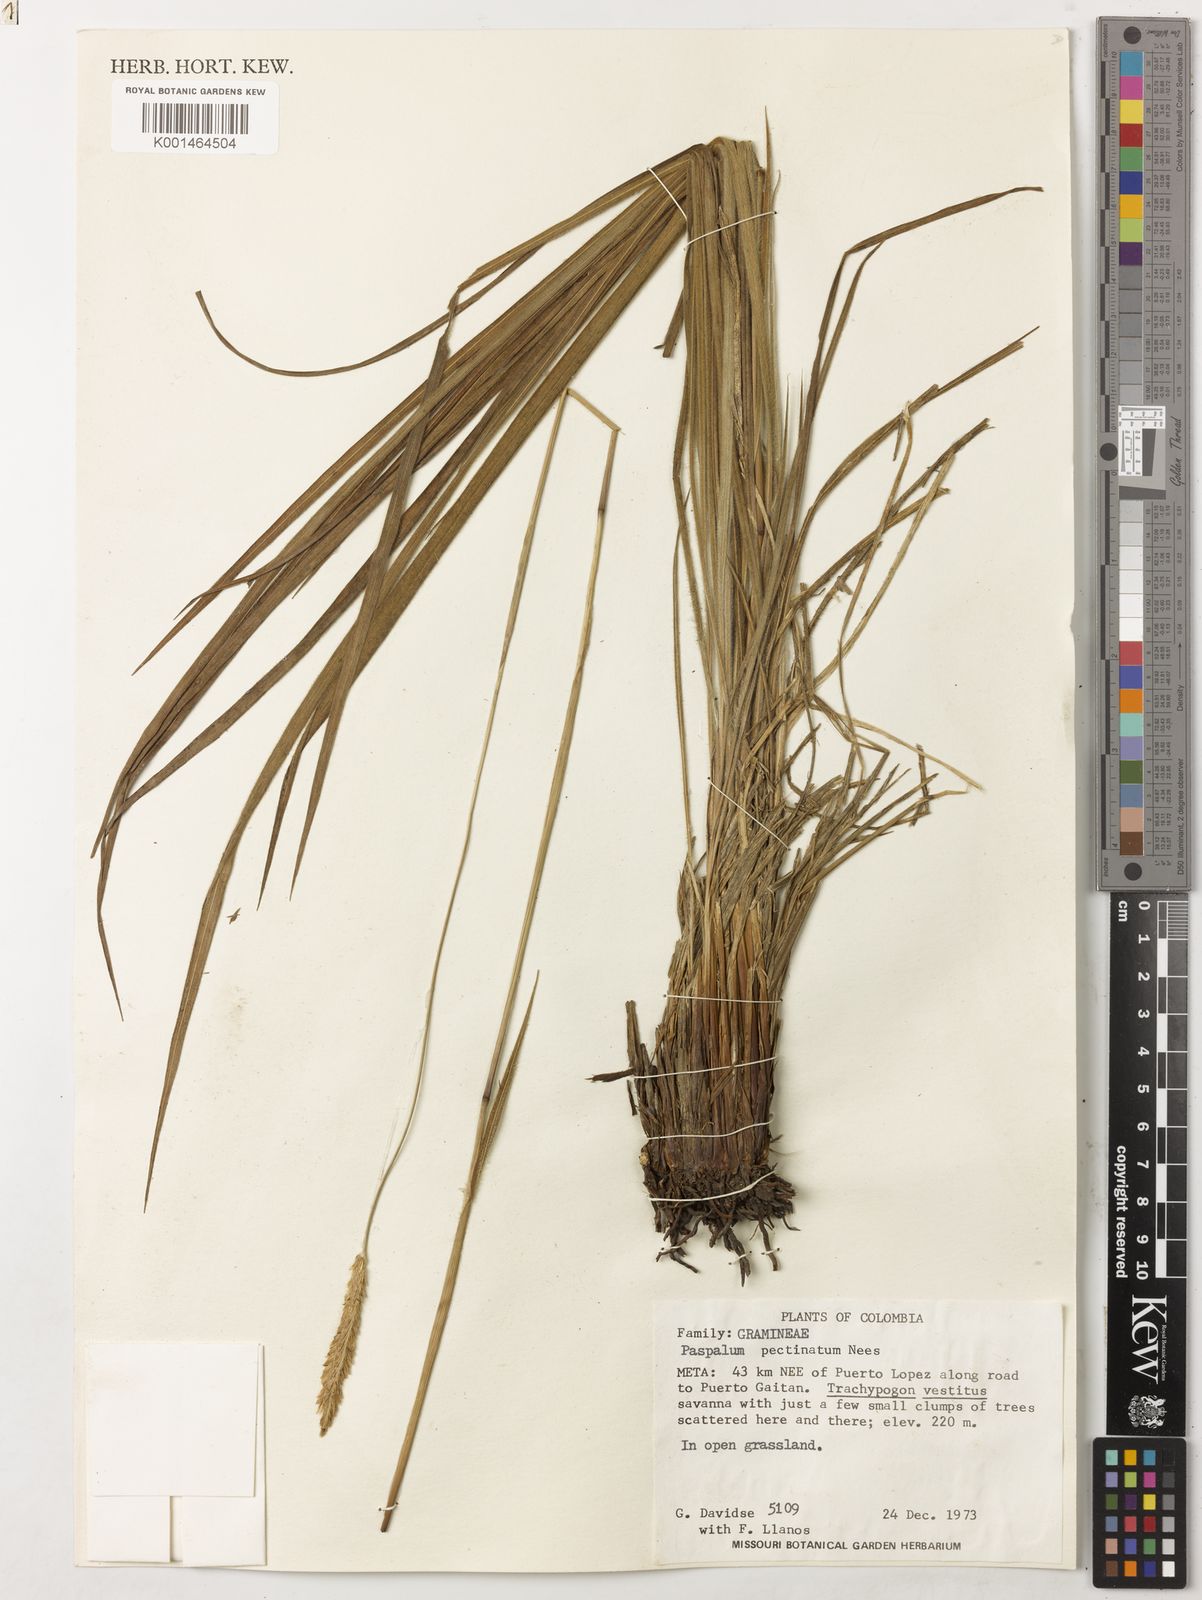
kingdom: Plantae
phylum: Tracheophyta
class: Liliopsida
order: Poales
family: Poaceae
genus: Paspalum
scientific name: Paspalum pectinatum
